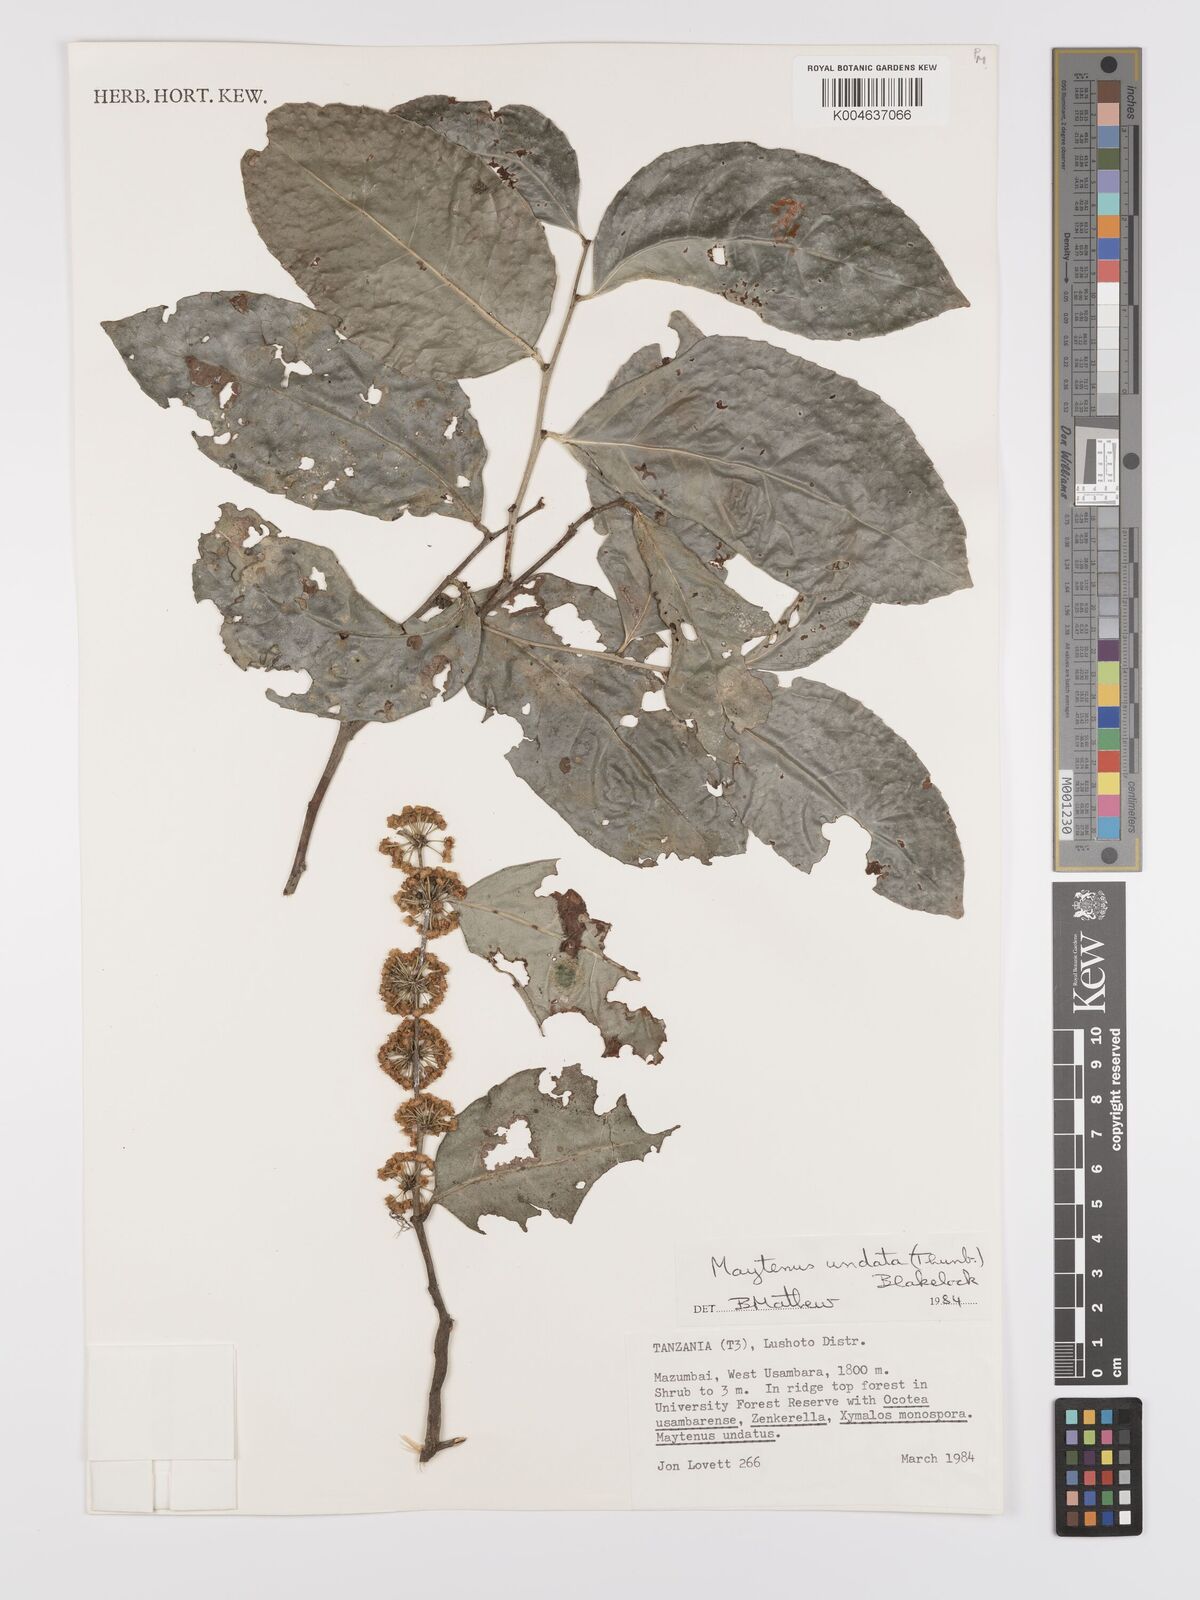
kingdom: Plantae
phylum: Tracheophyta
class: Magnoliopsida
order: Celastrales
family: Celastraceae
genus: Gymnosporia
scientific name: Gymnosporia undata
